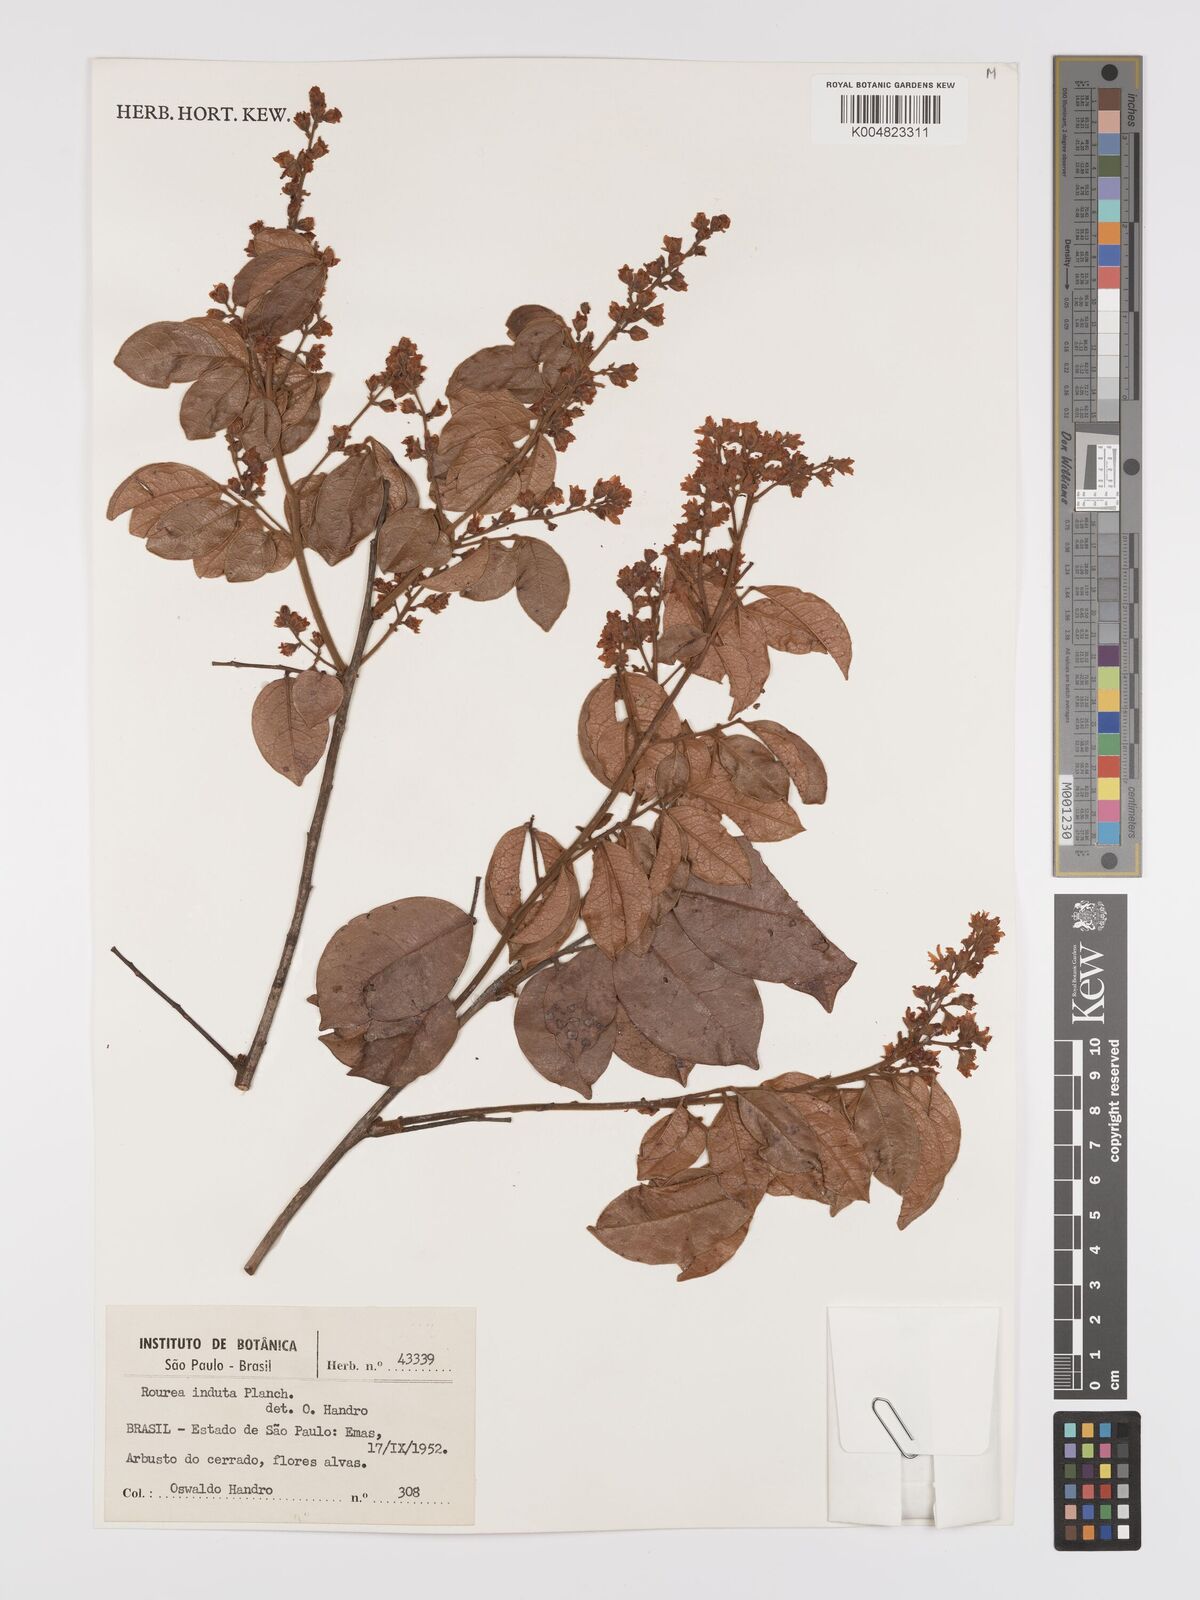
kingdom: Plantae
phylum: Tracheophyta
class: Magnoliopsida
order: Oxalidales
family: Connaraceae
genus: Rourea
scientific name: Rourea induta
